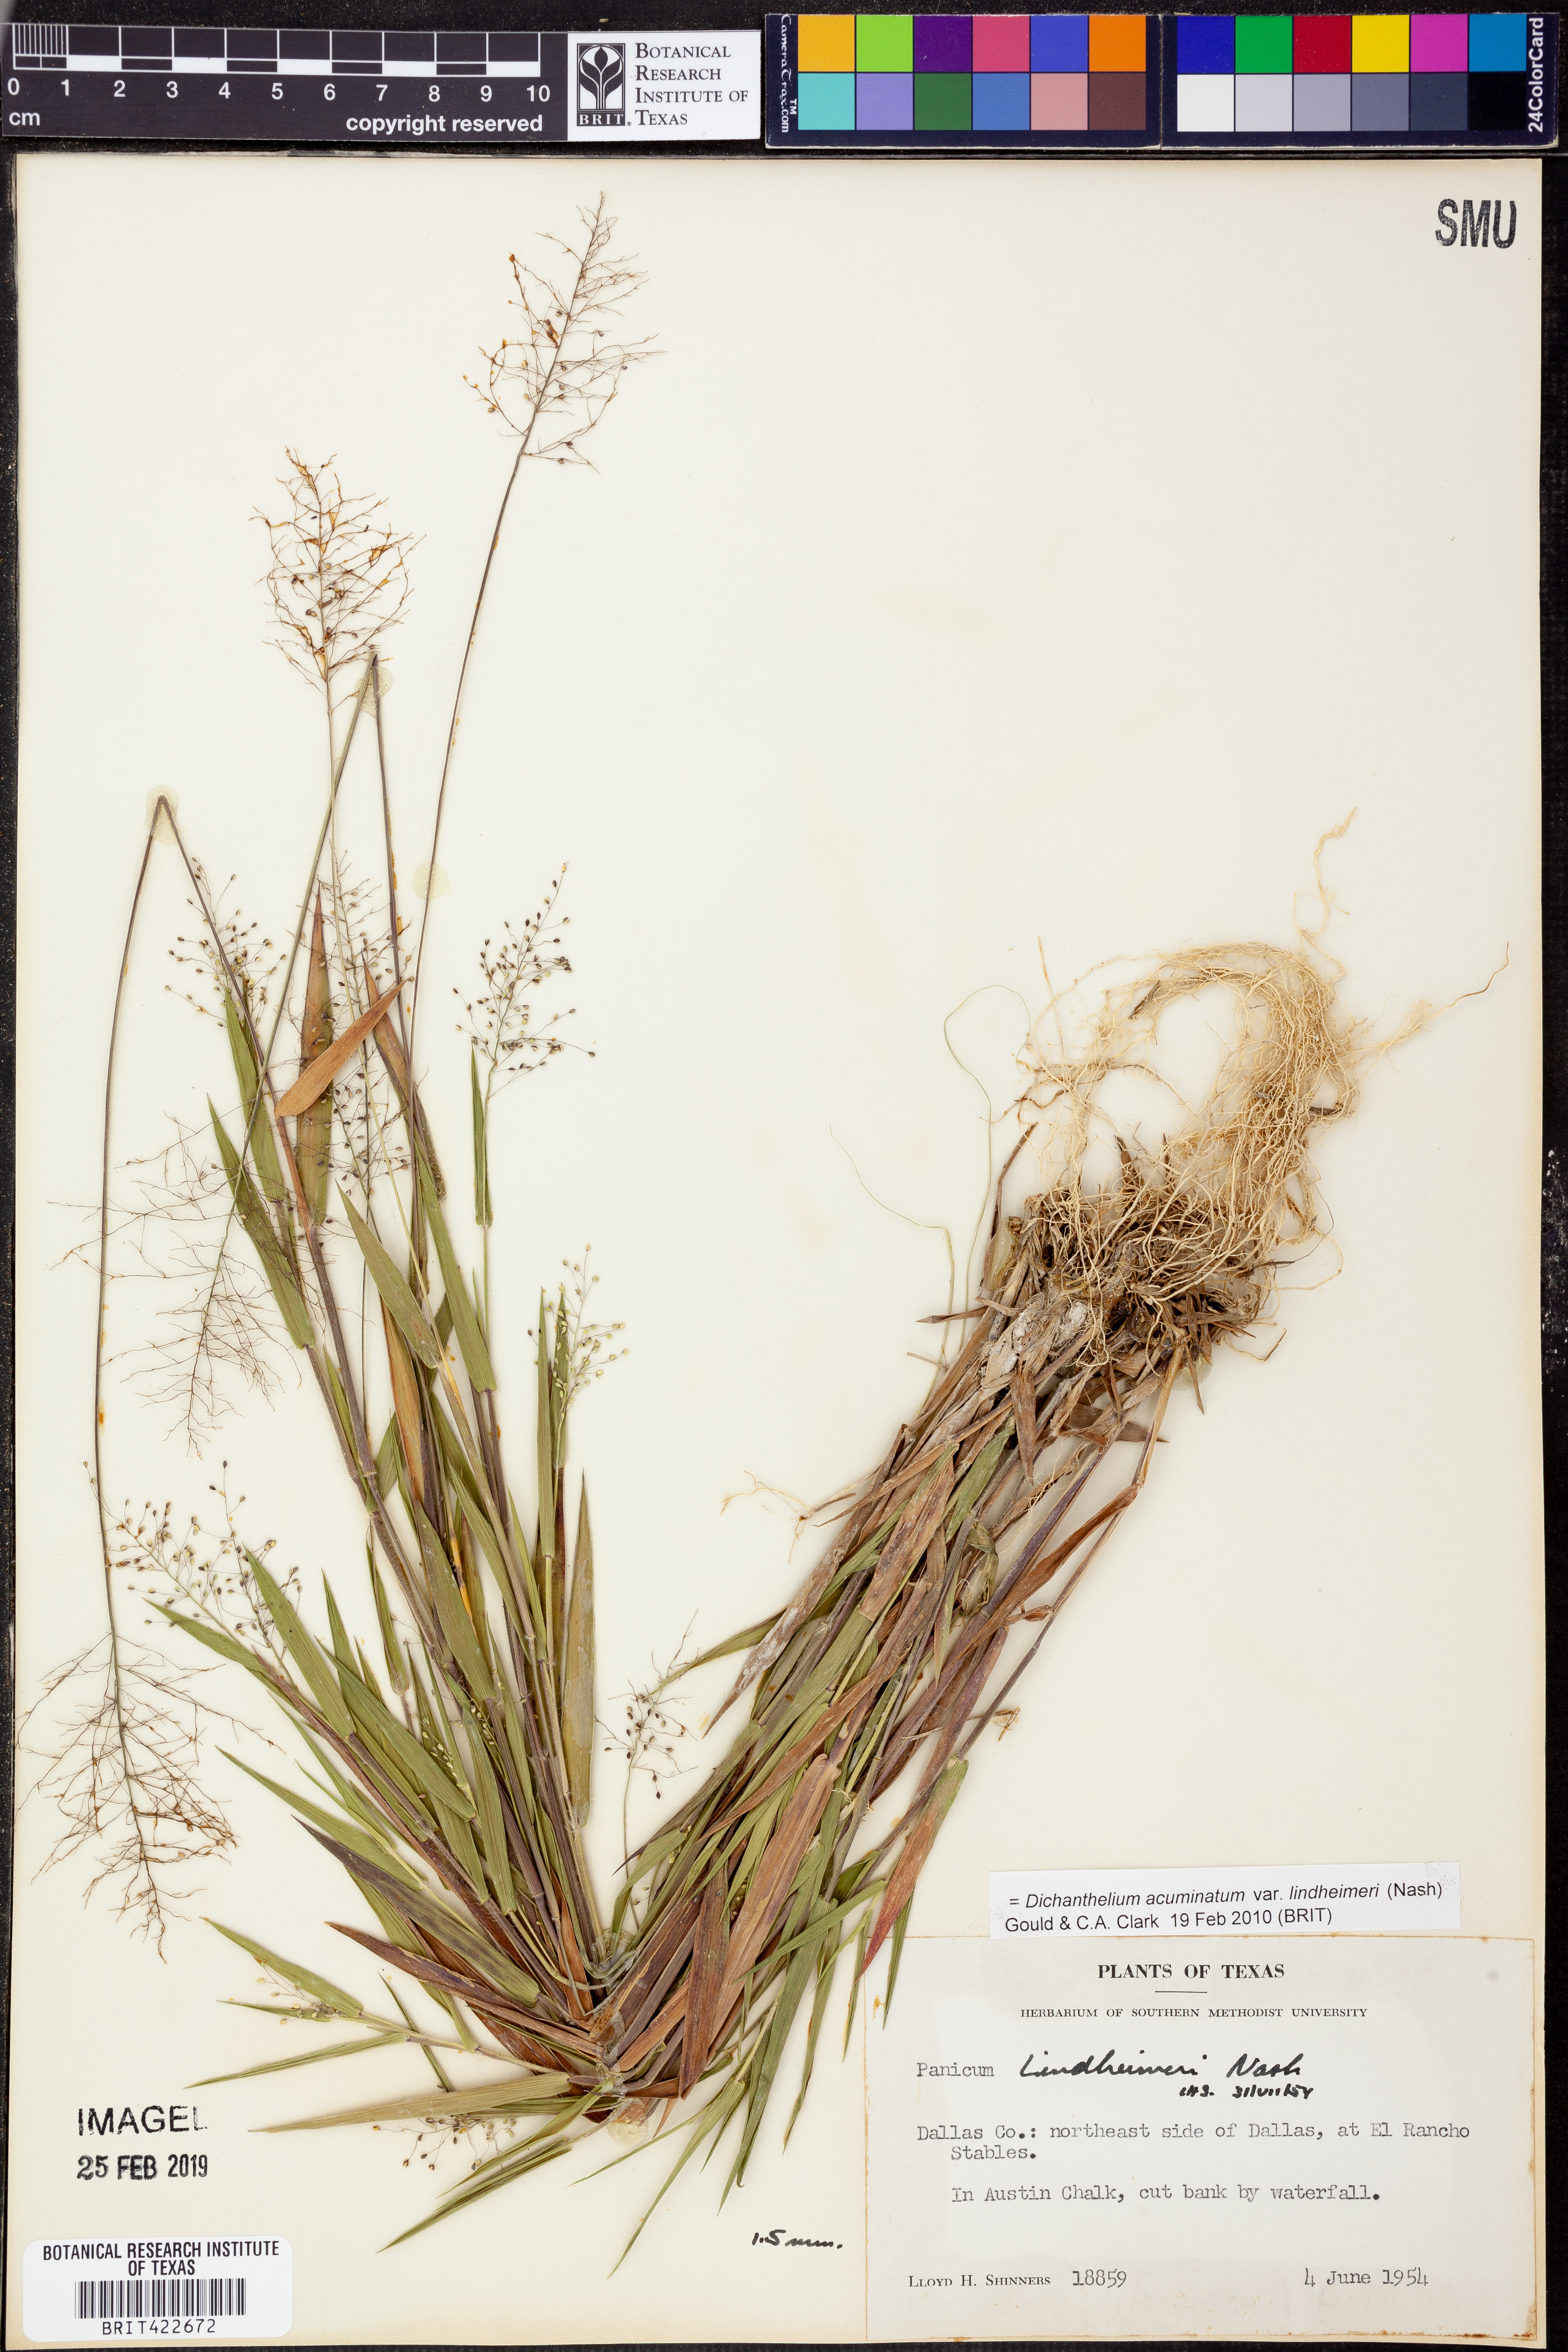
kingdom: Plantae
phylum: Tracheophyta
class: Liliopsida
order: Poales
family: Poaceae
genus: Dichanthelium
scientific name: Dichanthelium lindheimeri
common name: Lindheimer's panicgrass
